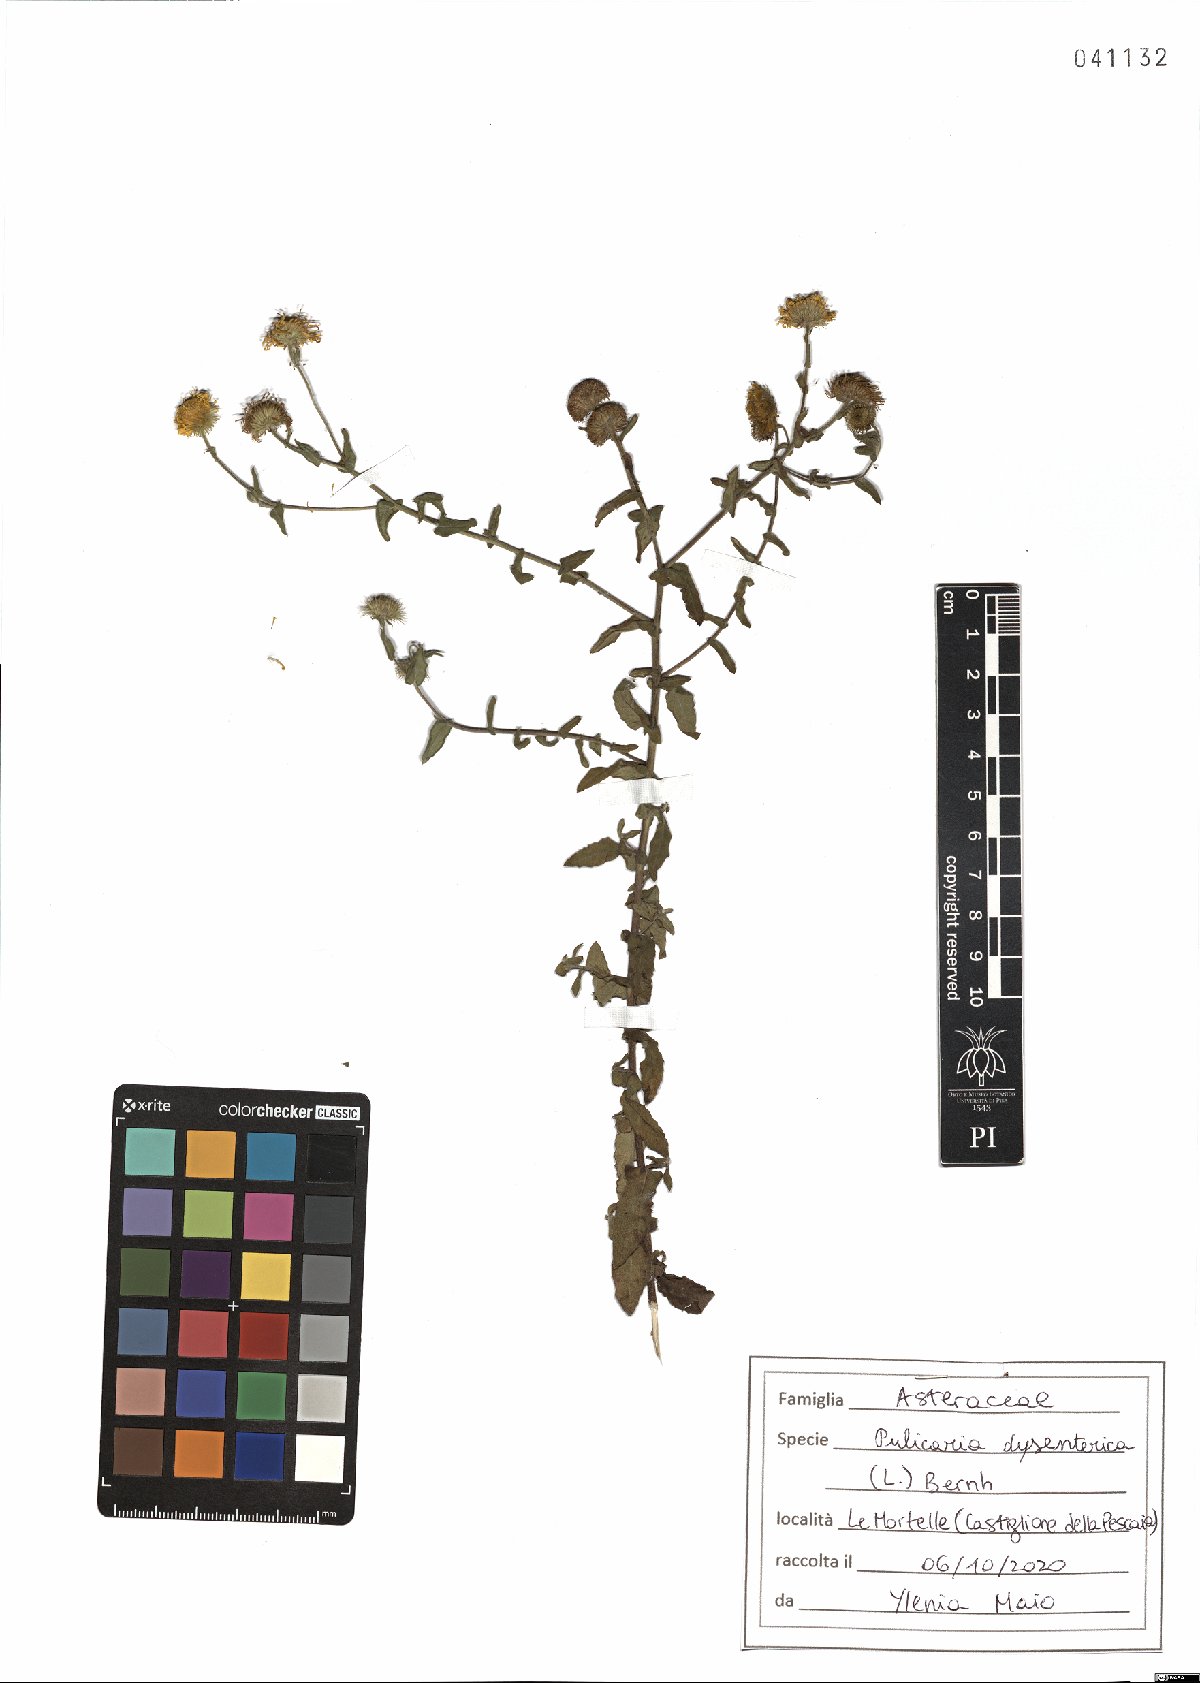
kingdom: Plantae
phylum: Tracheophyta
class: Magnoliopsida
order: Asterales
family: Asteraceae
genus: Pulicaria
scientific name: Pulicaria dysenterica
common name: Common fleabane
